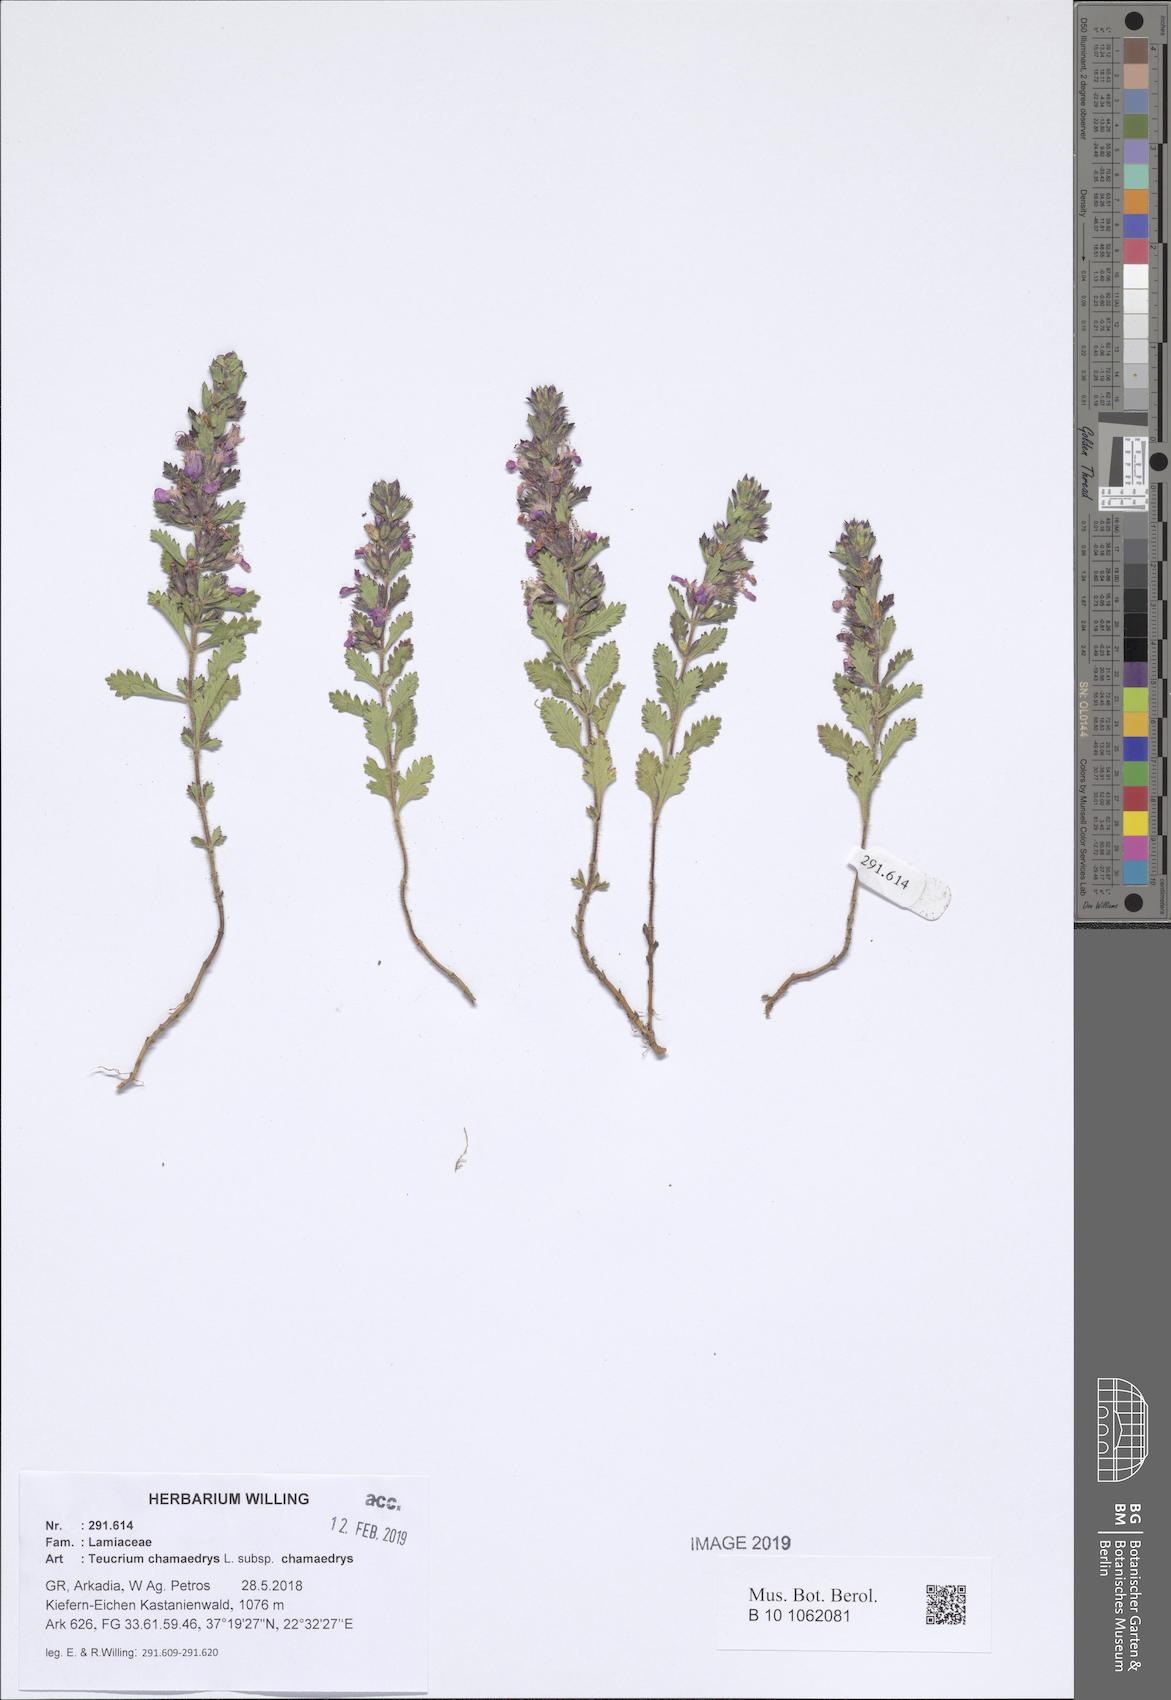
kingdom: Plantae
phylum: Tracheophyta
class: Magnoliopsida
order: Lamiales
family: Lamiaceae
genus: Teucrium
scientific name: Teucrium chamaedrys
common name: Wall germander
